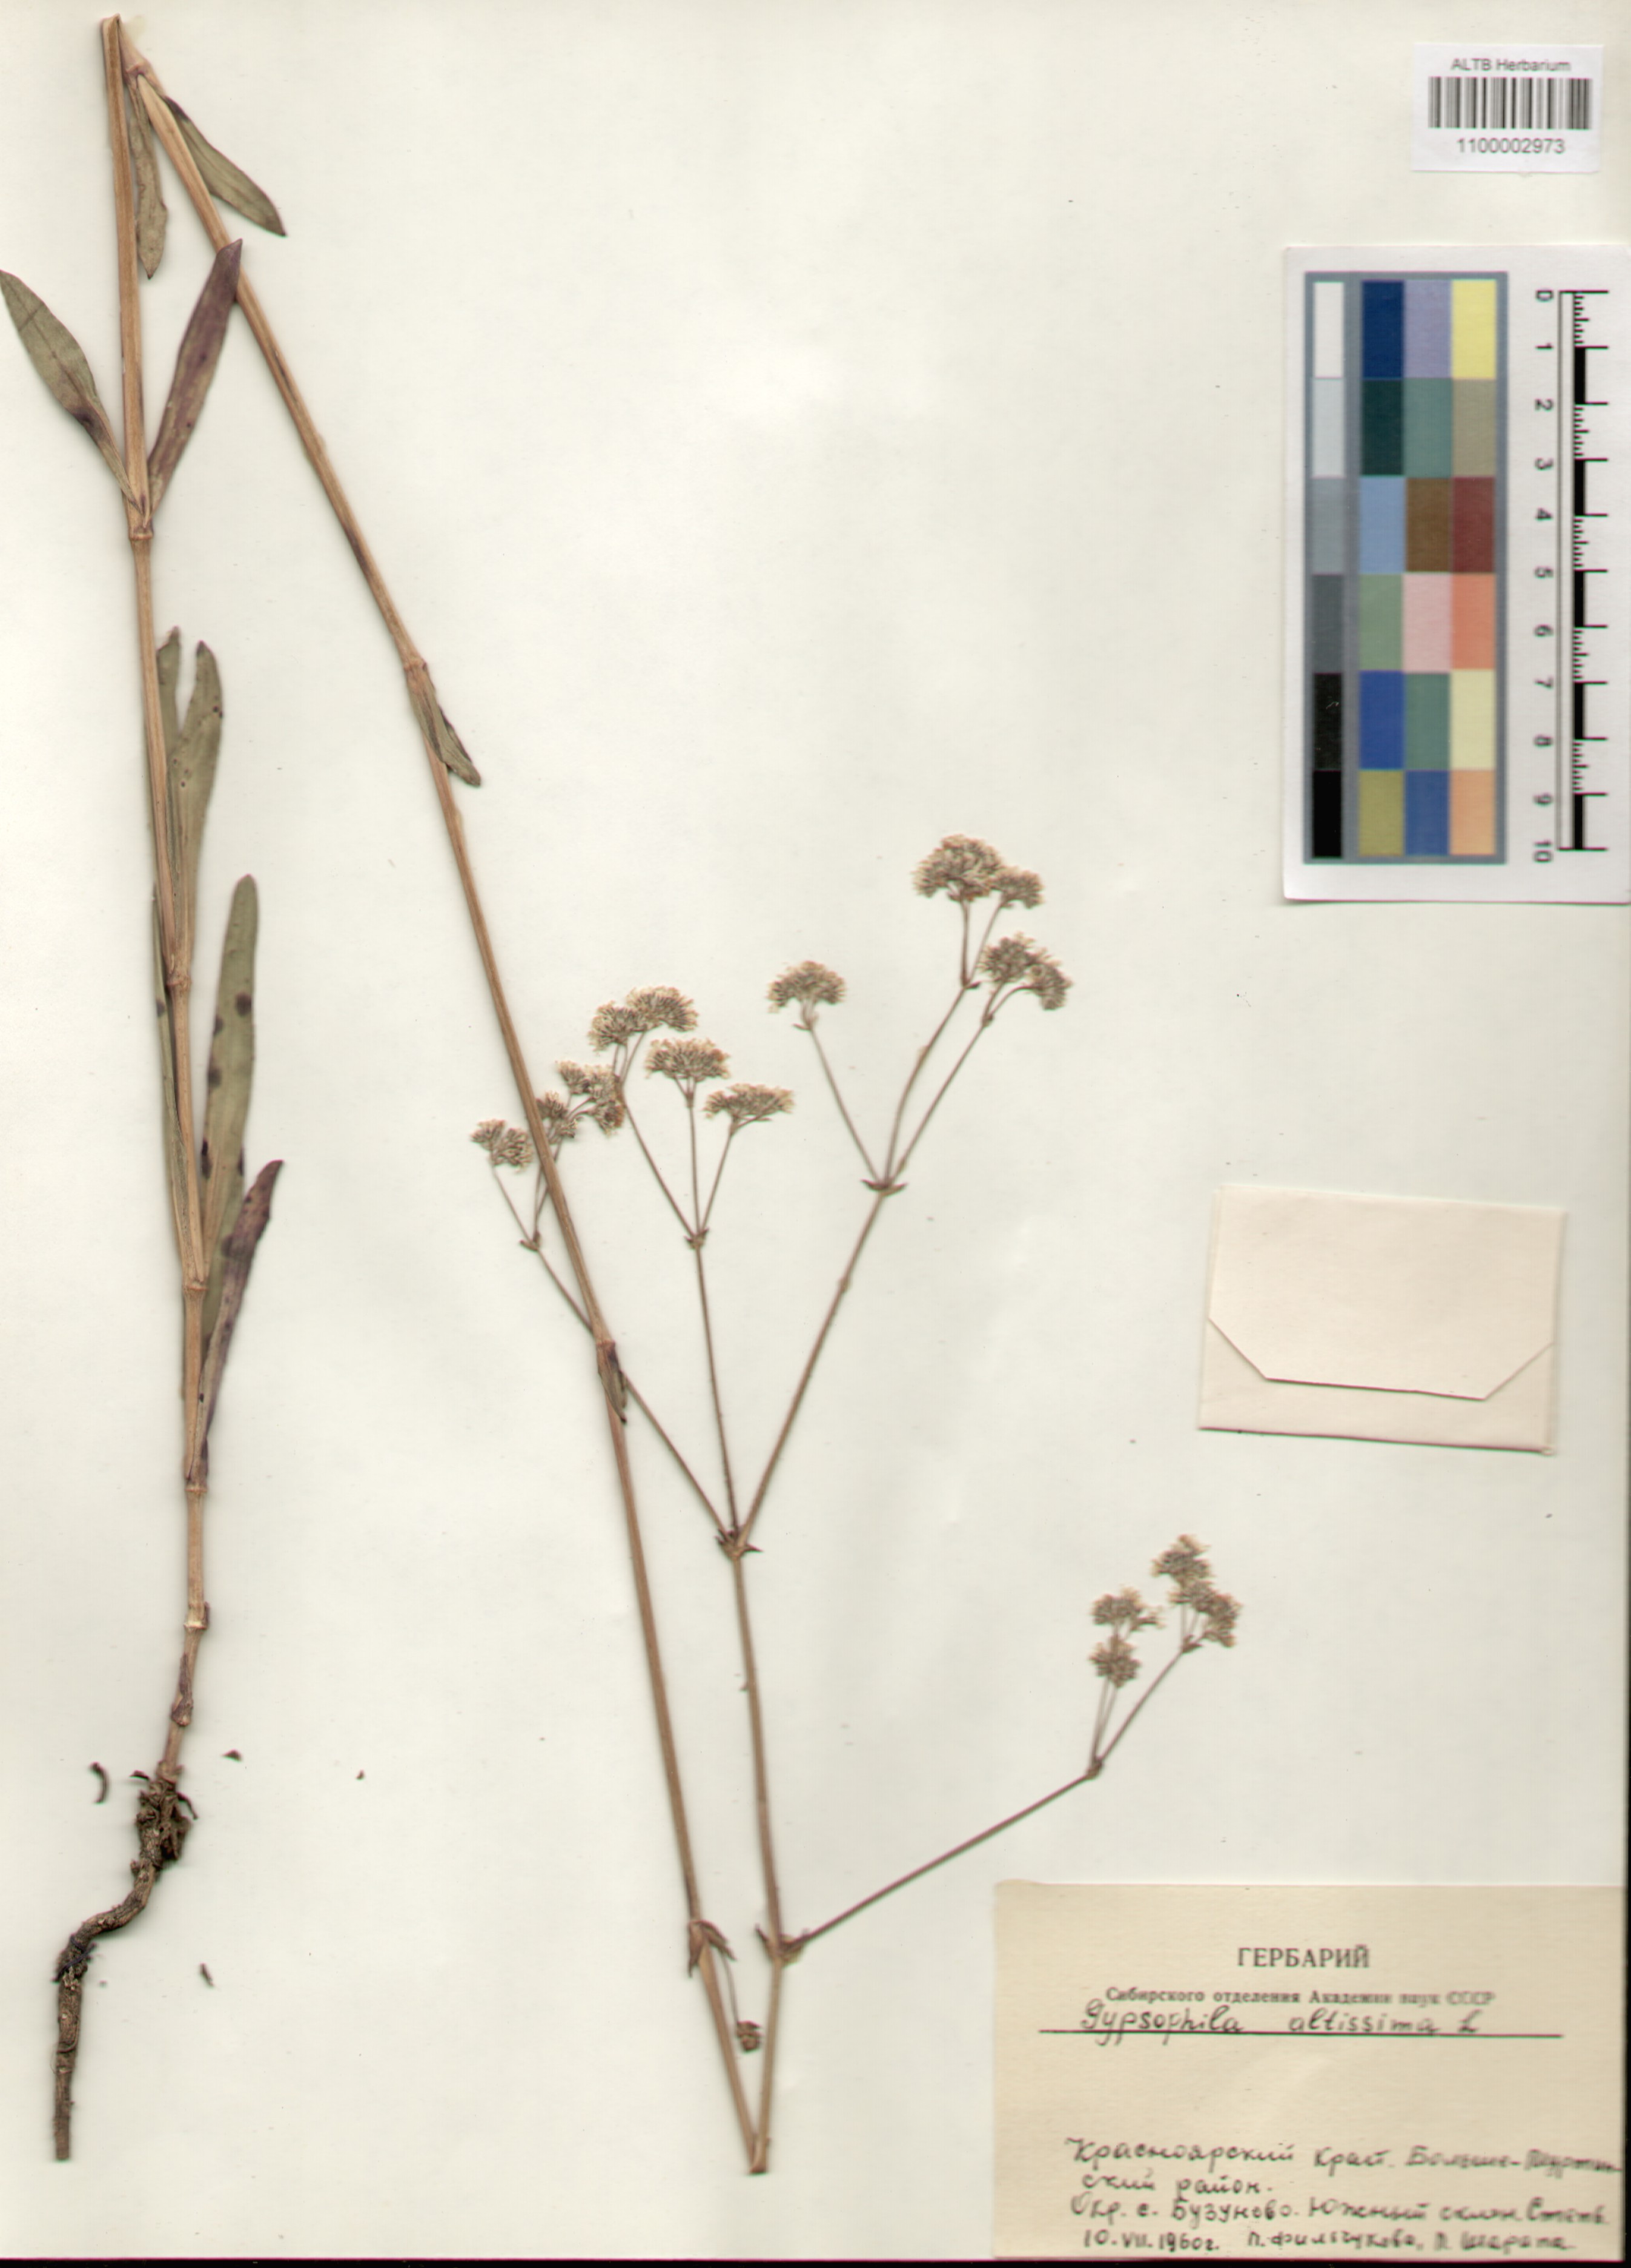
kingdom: Plantae
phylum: Tracheophyta
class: Magnoliopsida
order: Caryophyllales
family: Caryophyllaceae
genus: Gypsophila
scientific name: Gypsophila altissima
